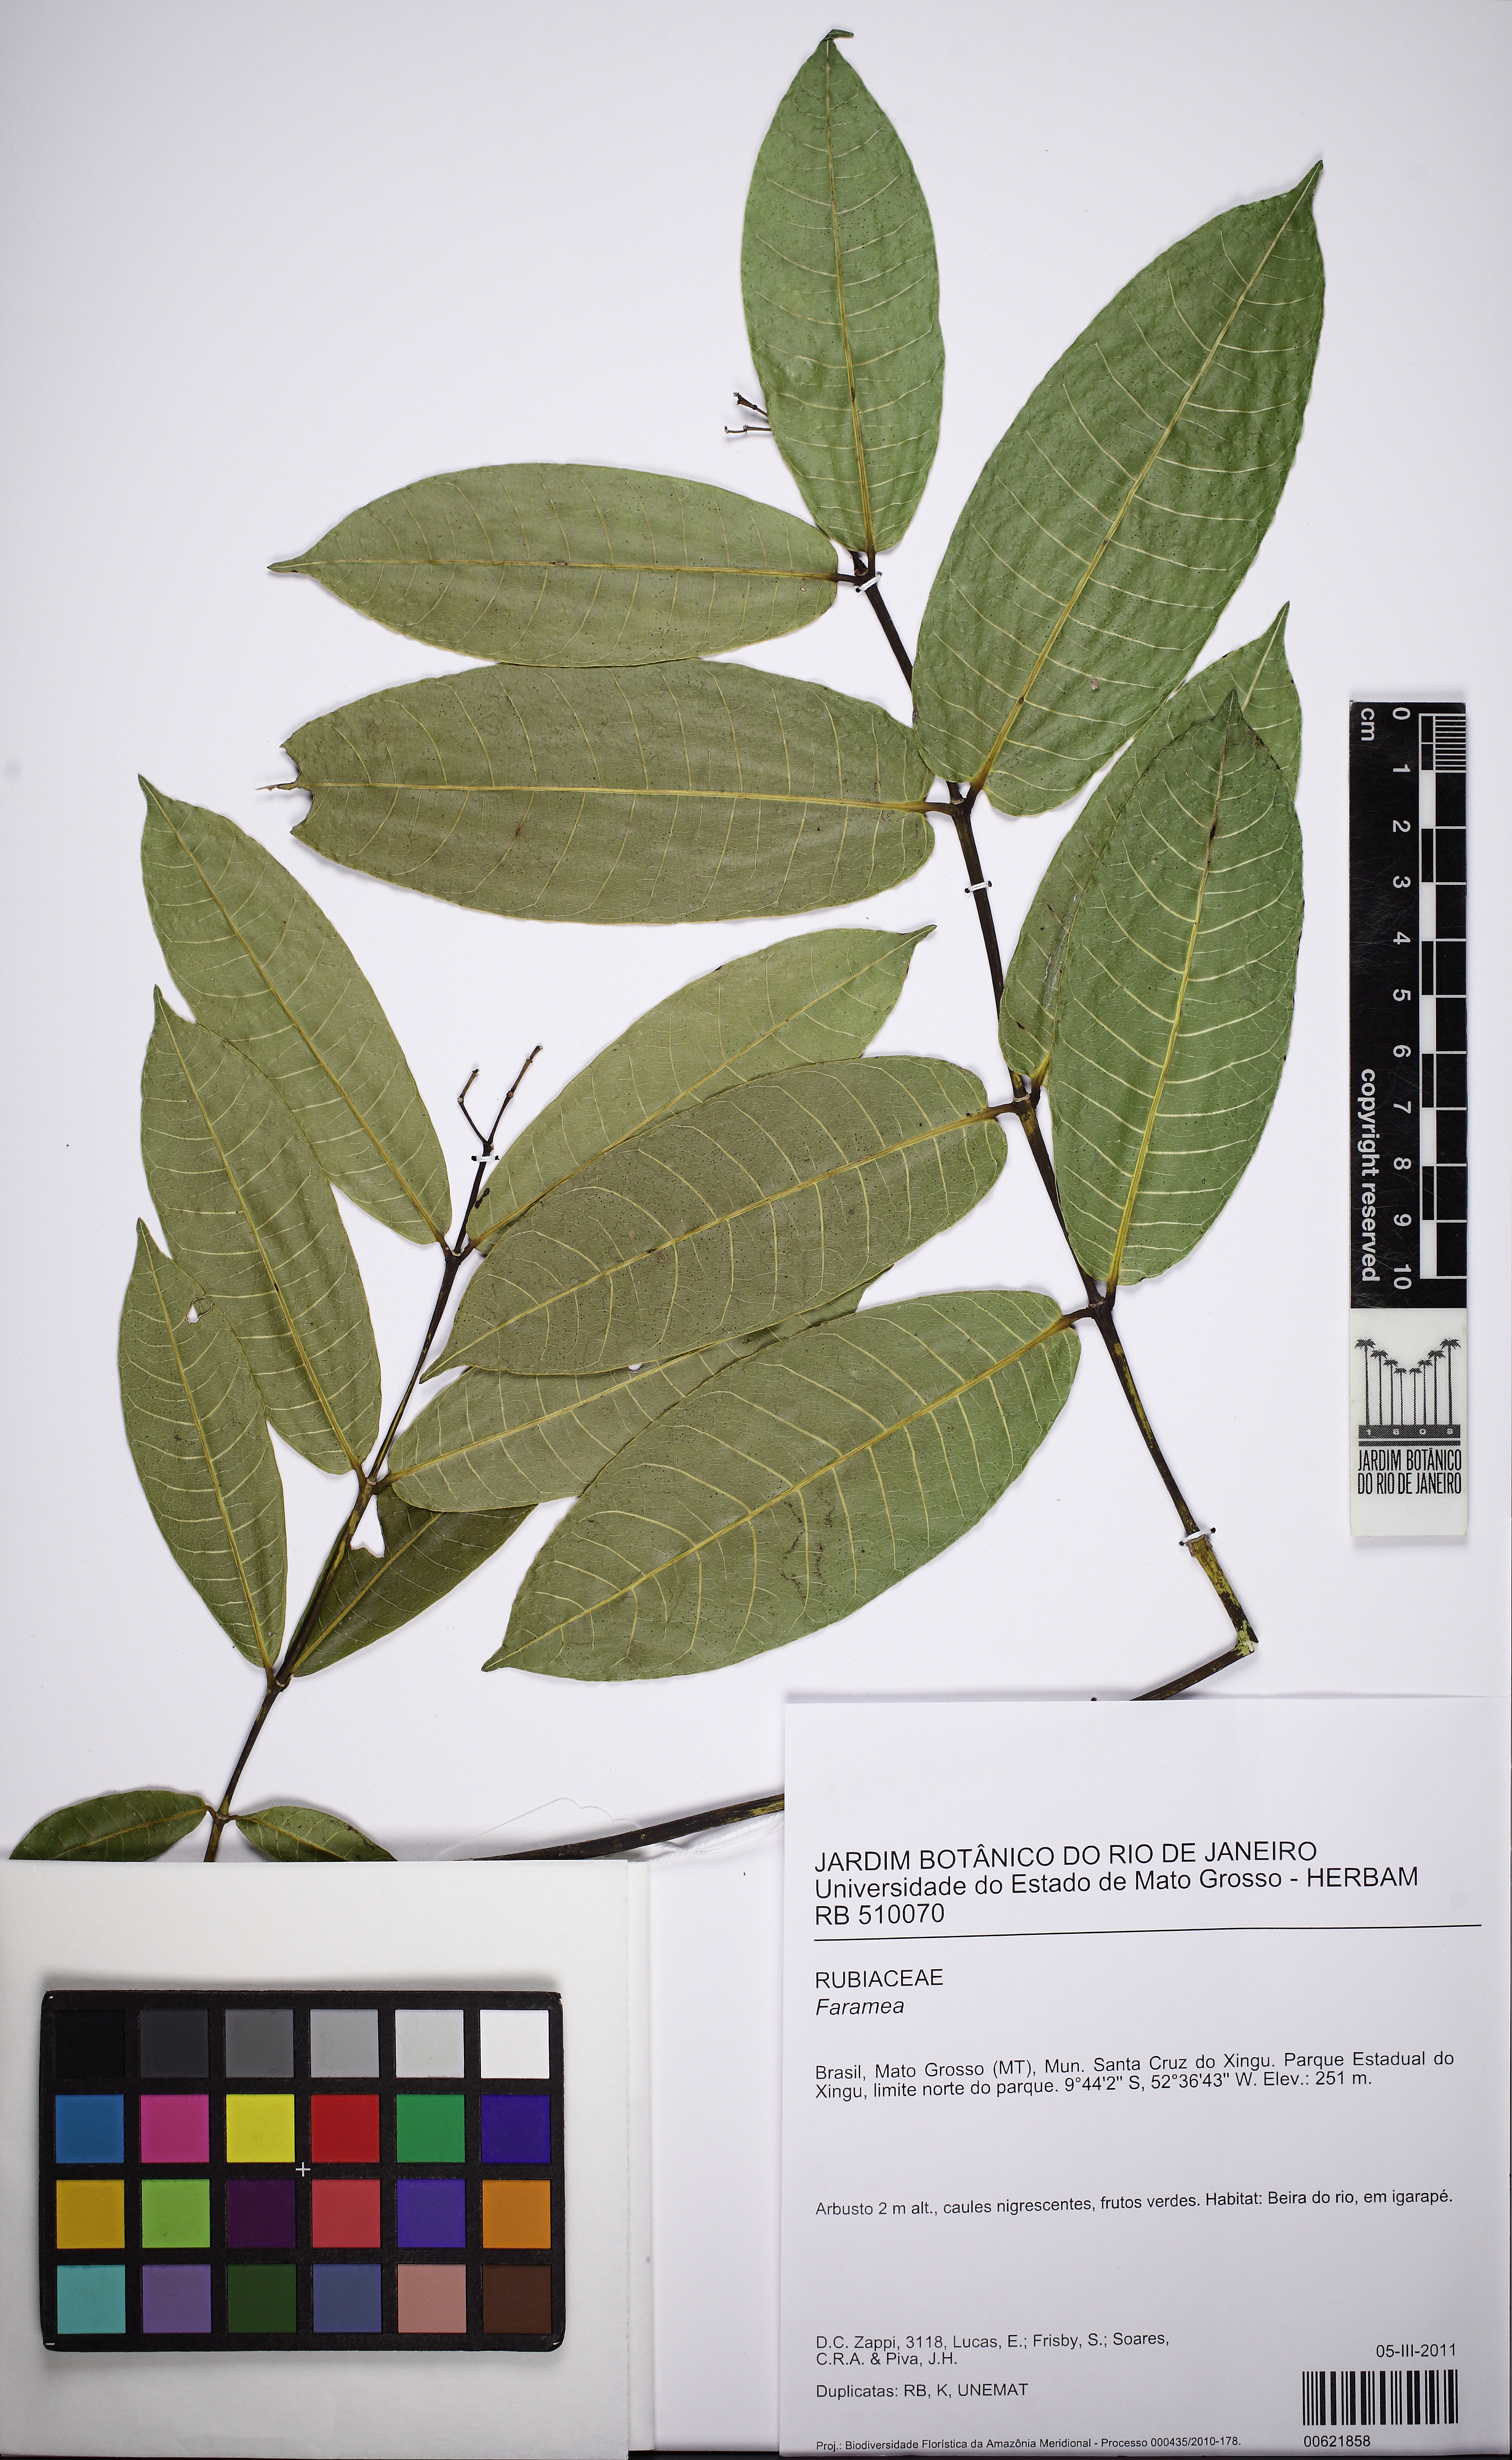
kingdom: Plantae
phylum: Tracheophyta
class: Magnoliopsida
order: Gentianales
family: Rubiaceae
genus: Faramea
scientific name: Faramea
